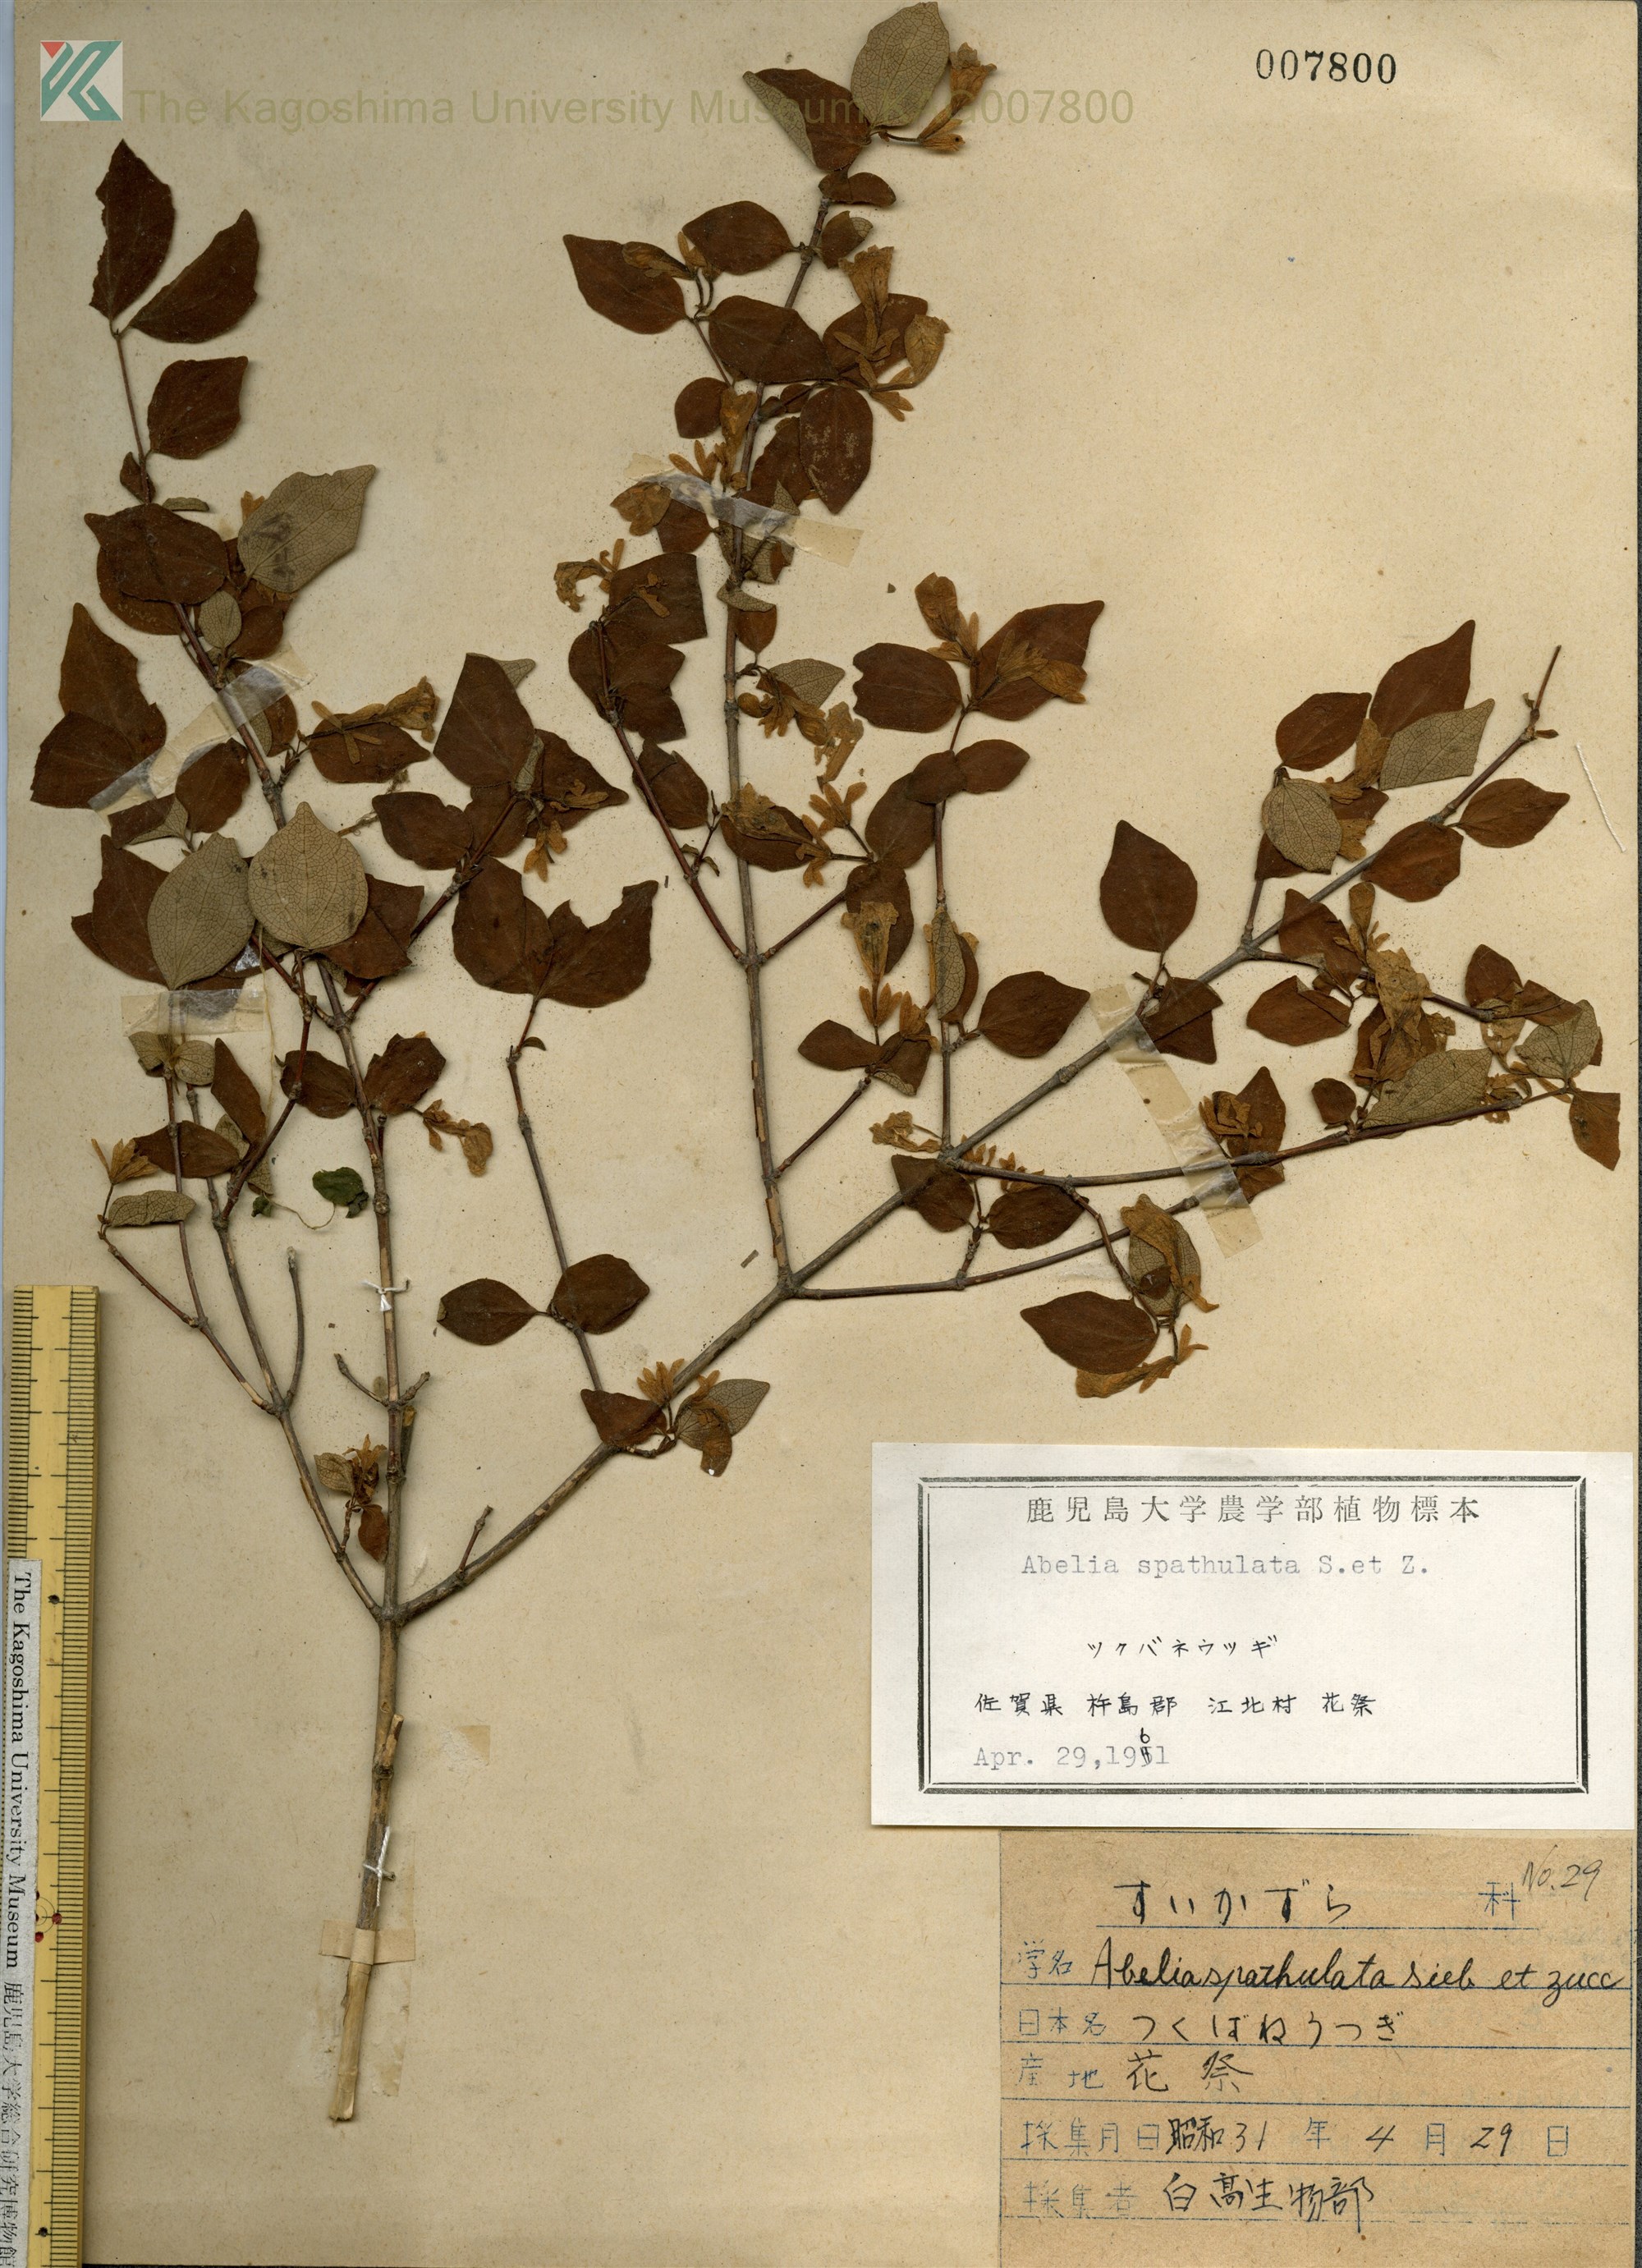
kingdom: Plantae
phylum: Tracheophyta
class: Magnoliopsida
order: Dipsacales
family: Caprifoliaceae
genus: Diabelia
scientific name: Diabelia spathulata
